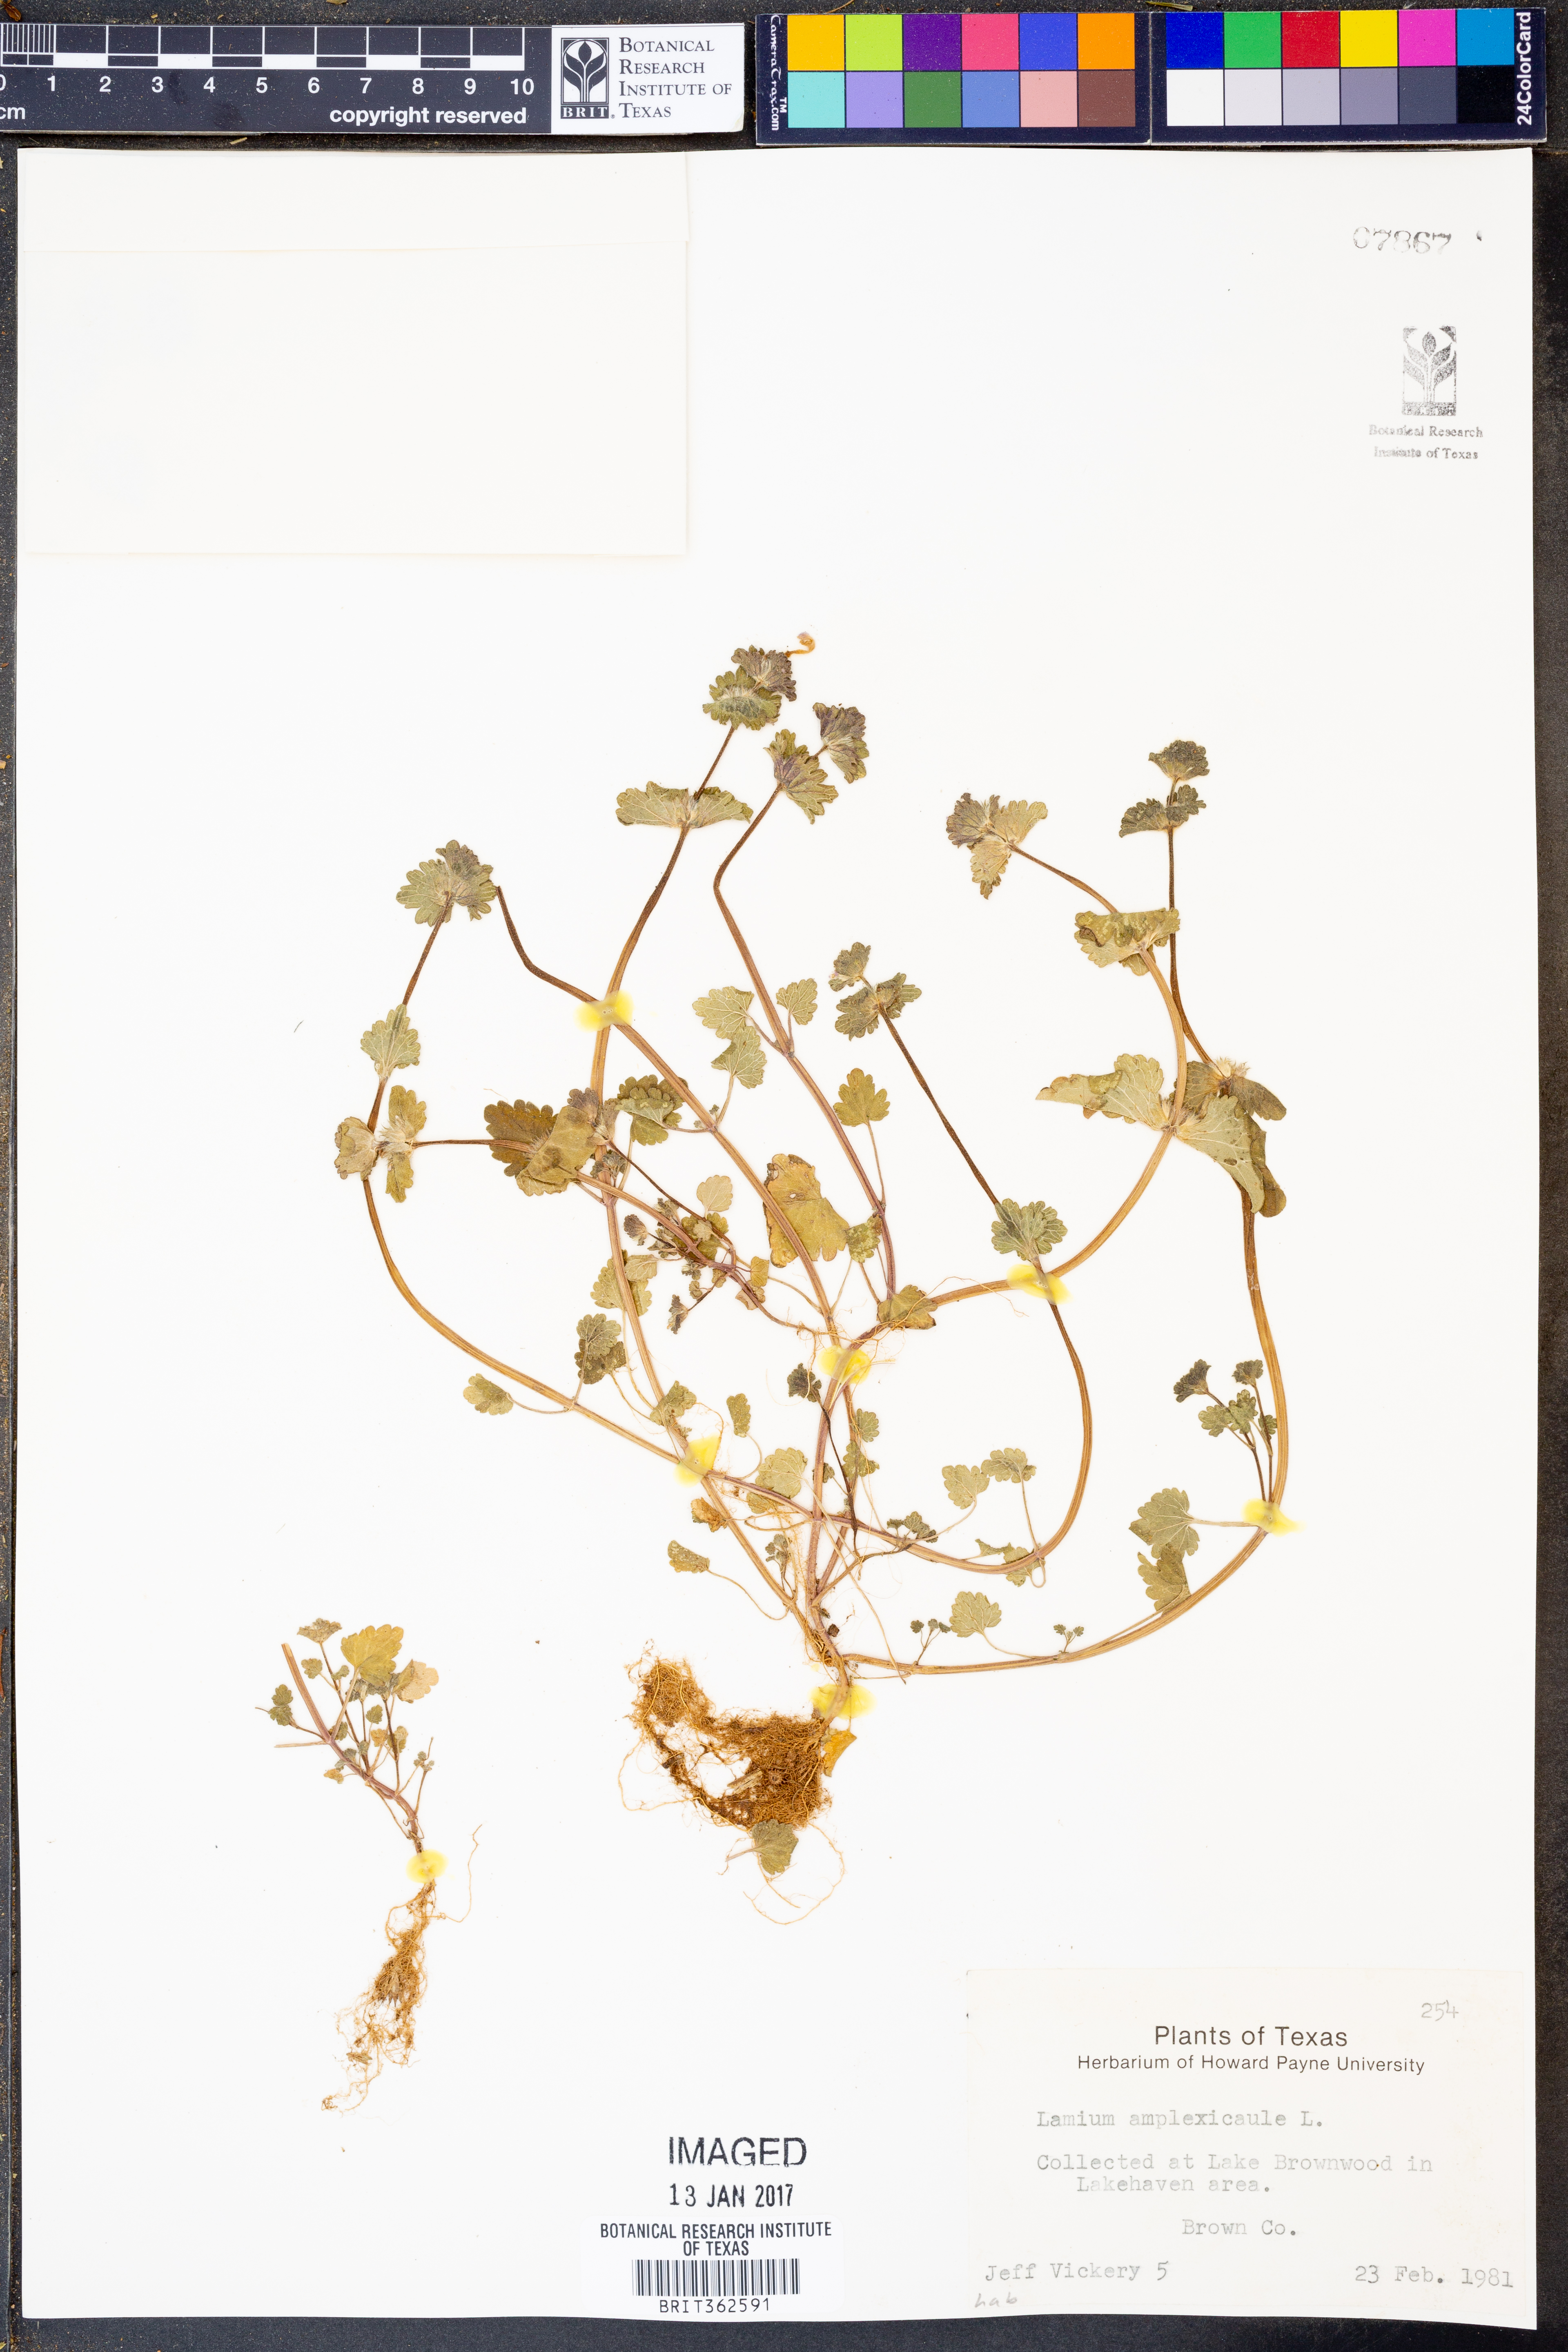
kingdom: Plantae
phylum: Tracheophyta
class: Magnoliopsida
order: Lamiales
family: Lamiaceae
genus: Lamium
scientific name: Lamium amplexicaule
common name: Henbit dead-nettle
